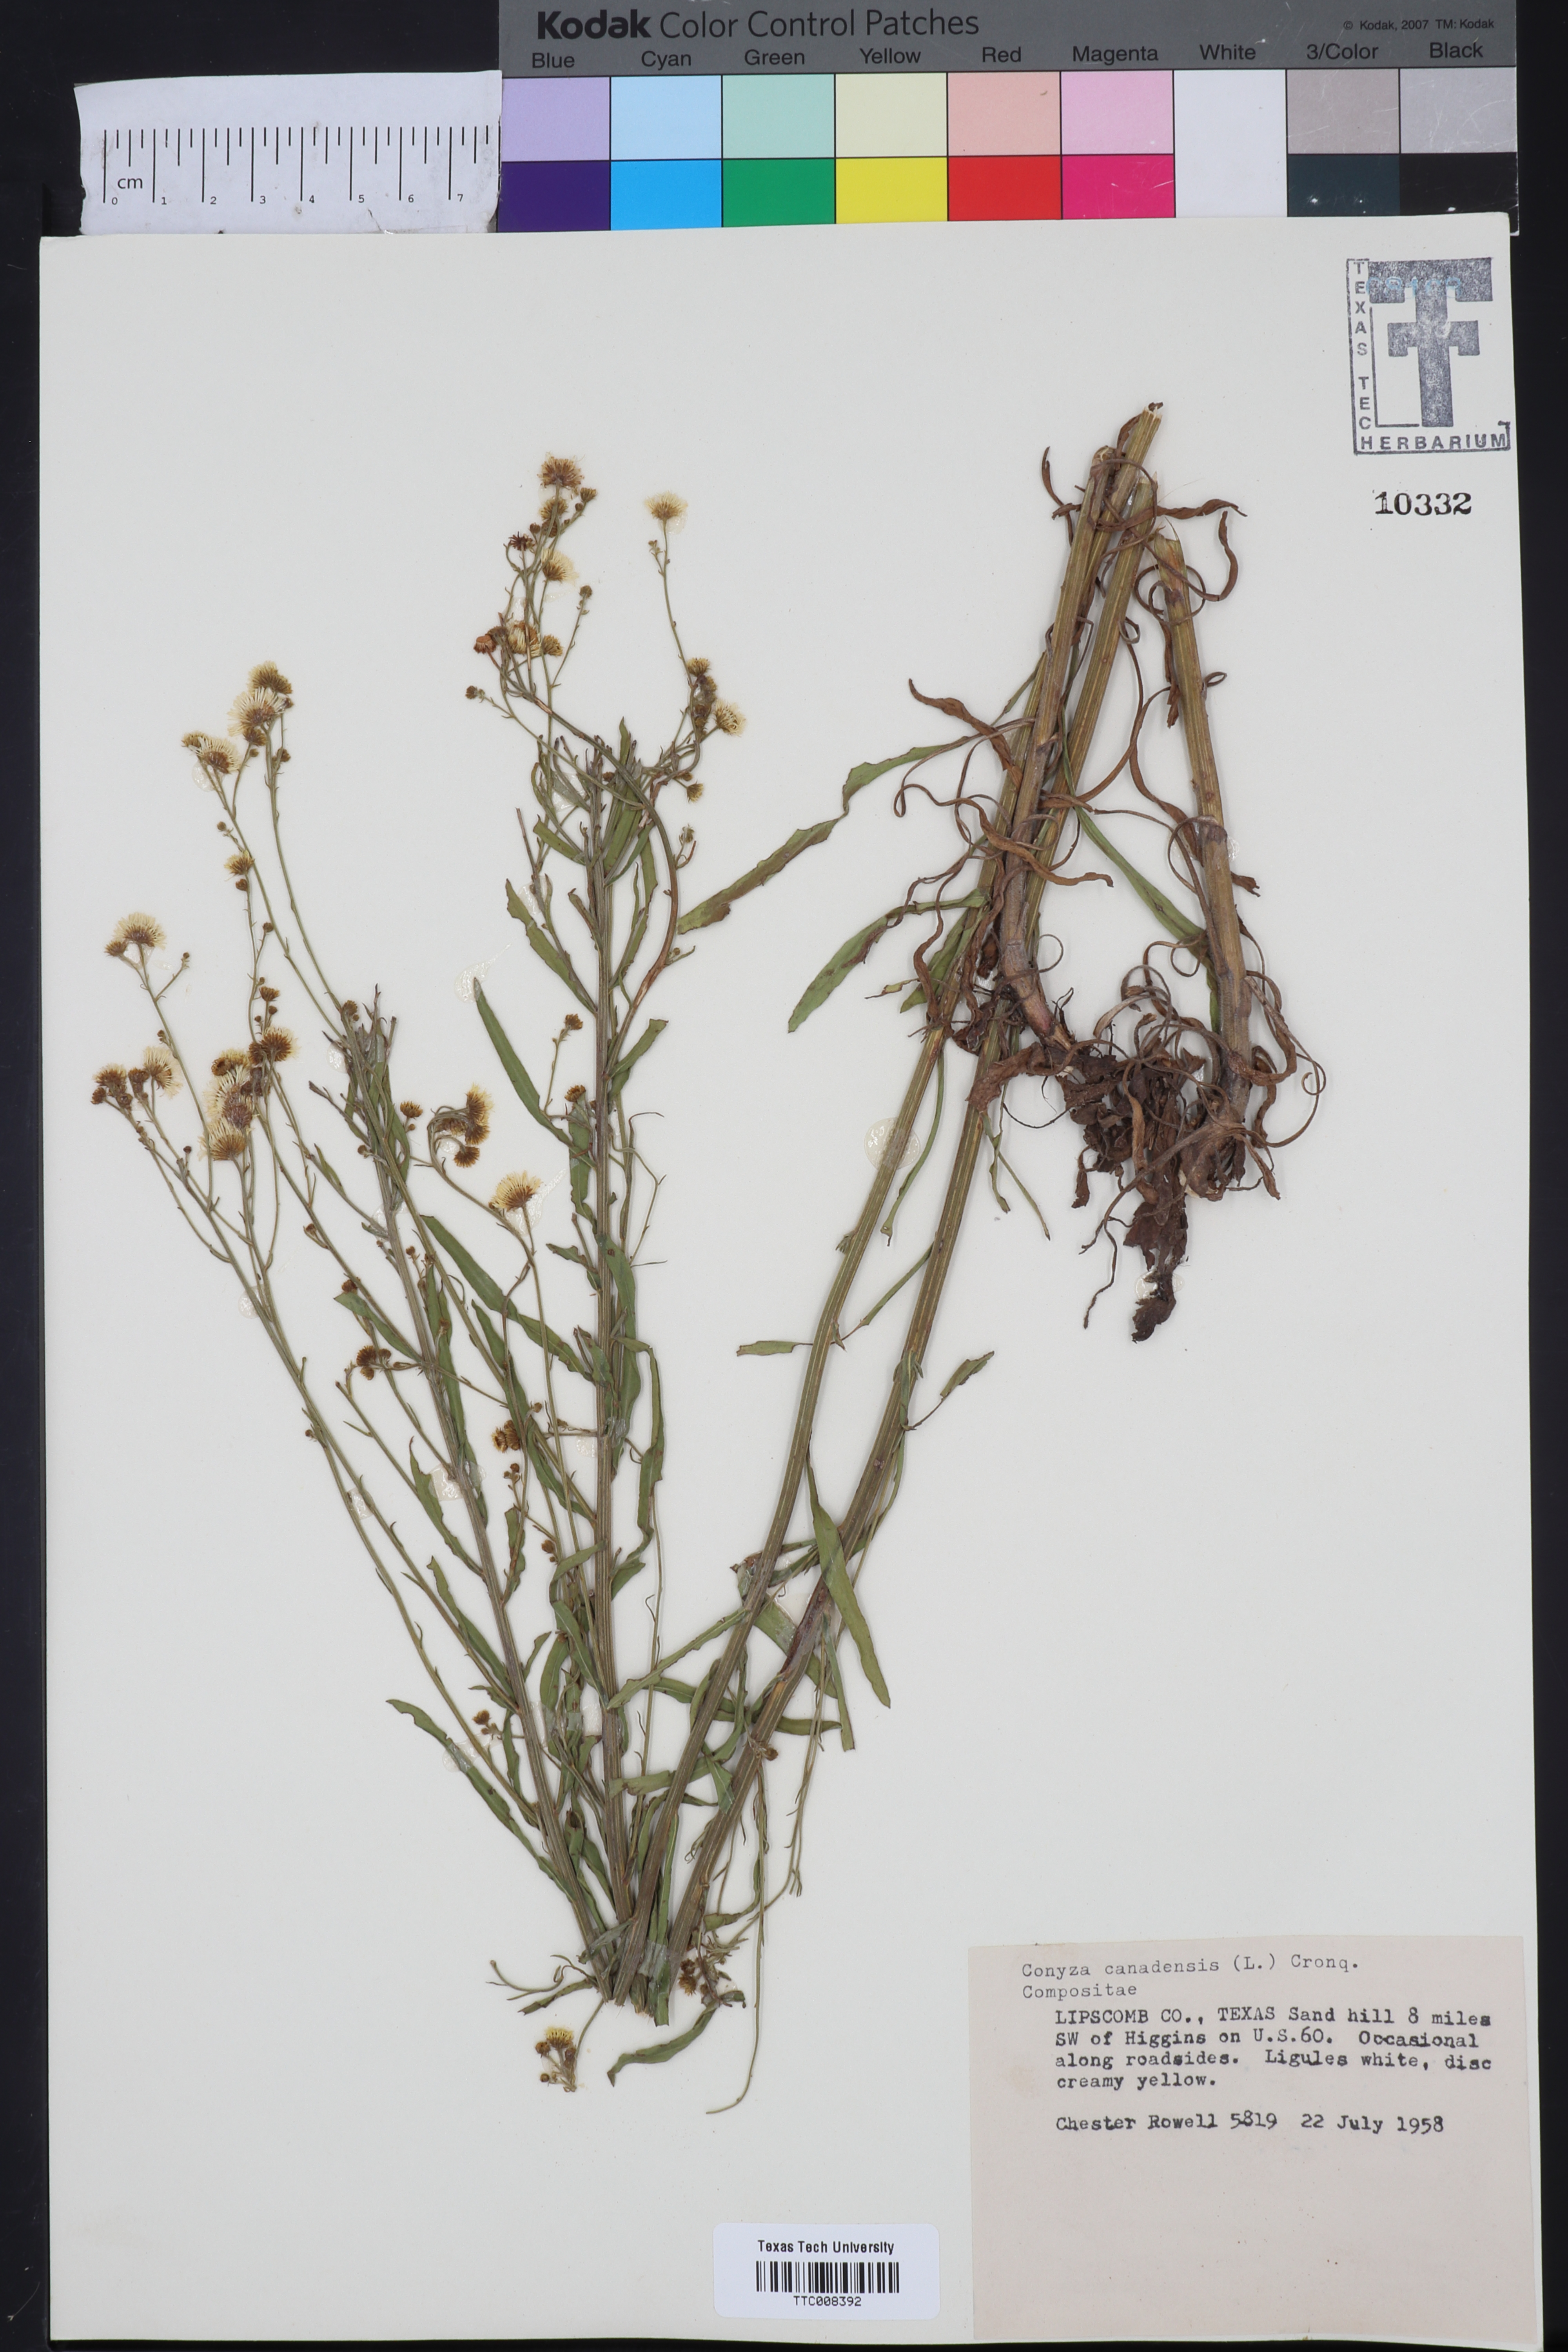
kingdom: Plantae
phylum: Tracheophyta
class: Magnoliopsida
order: Asterales
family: Asteraceae
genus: Erigeron
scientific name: Erigeron canadensis
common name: Canadian fleabane
